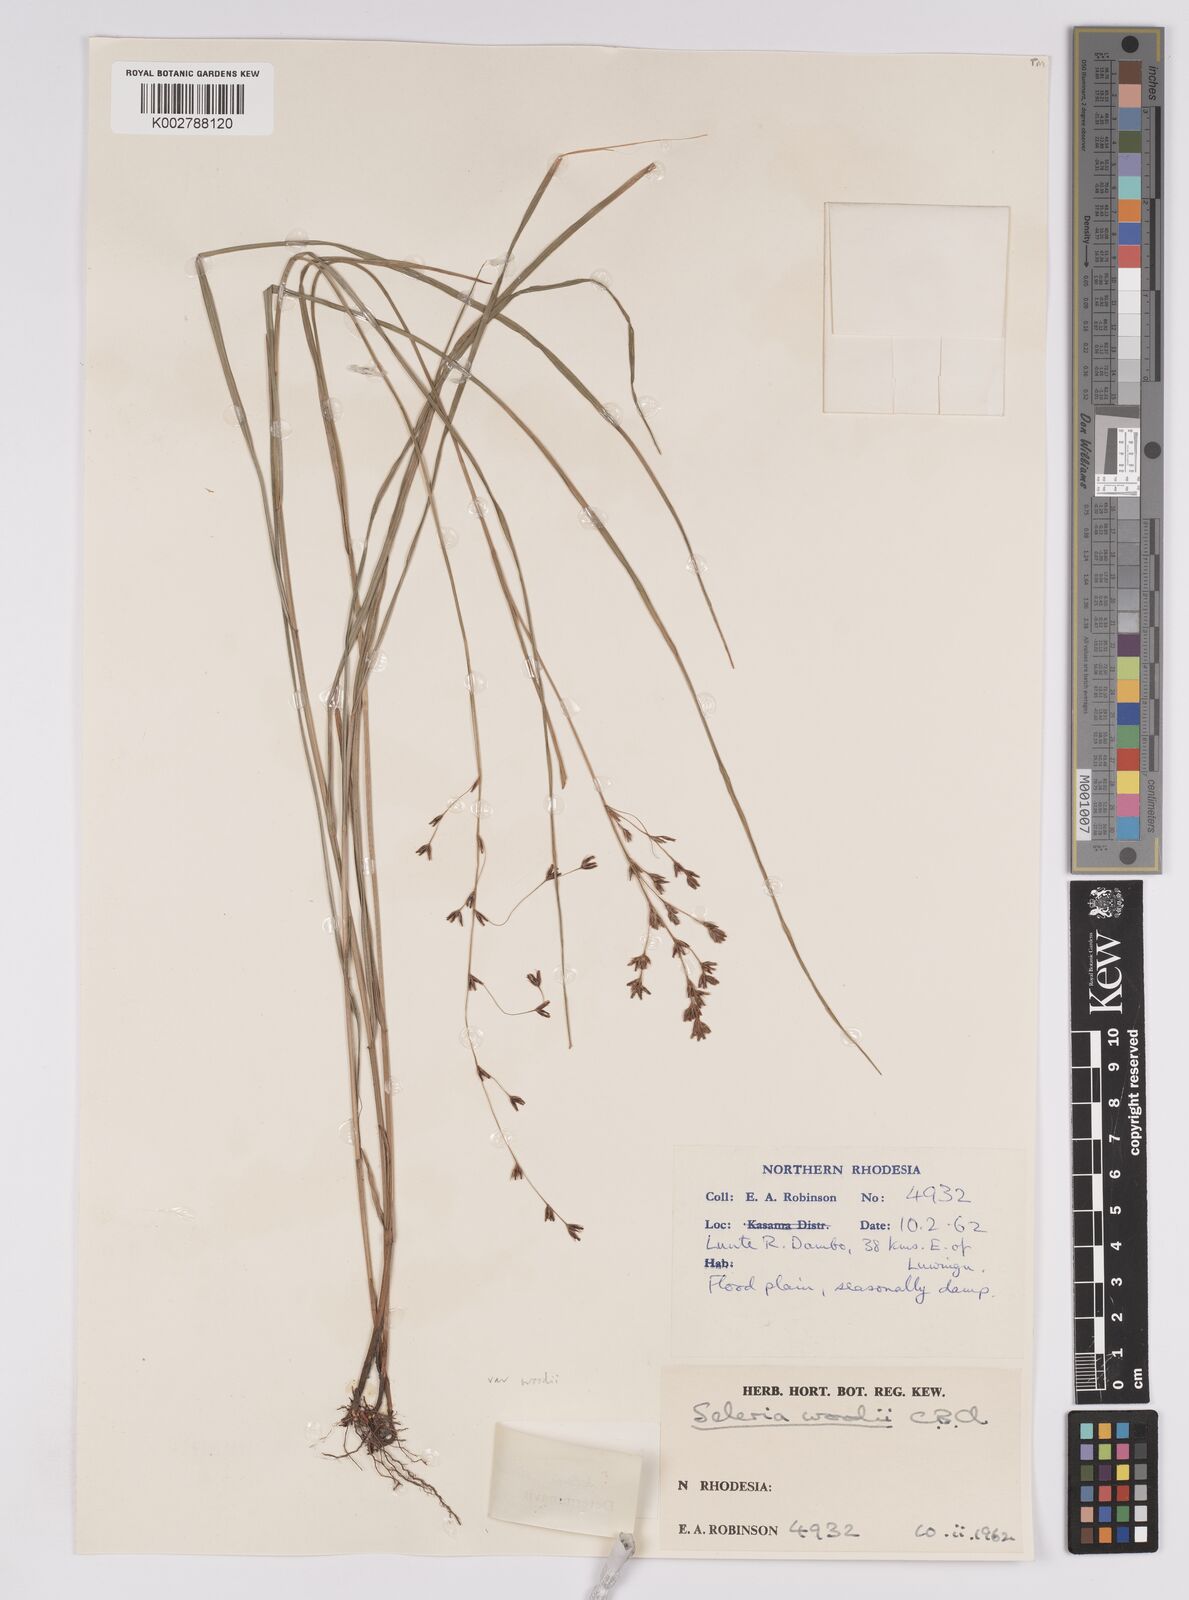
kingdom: Plantae
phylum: Tracheophyta
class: Liliopsida
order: Poales
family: Cyperaceae
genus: Scleria
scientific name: Scleria woodii
